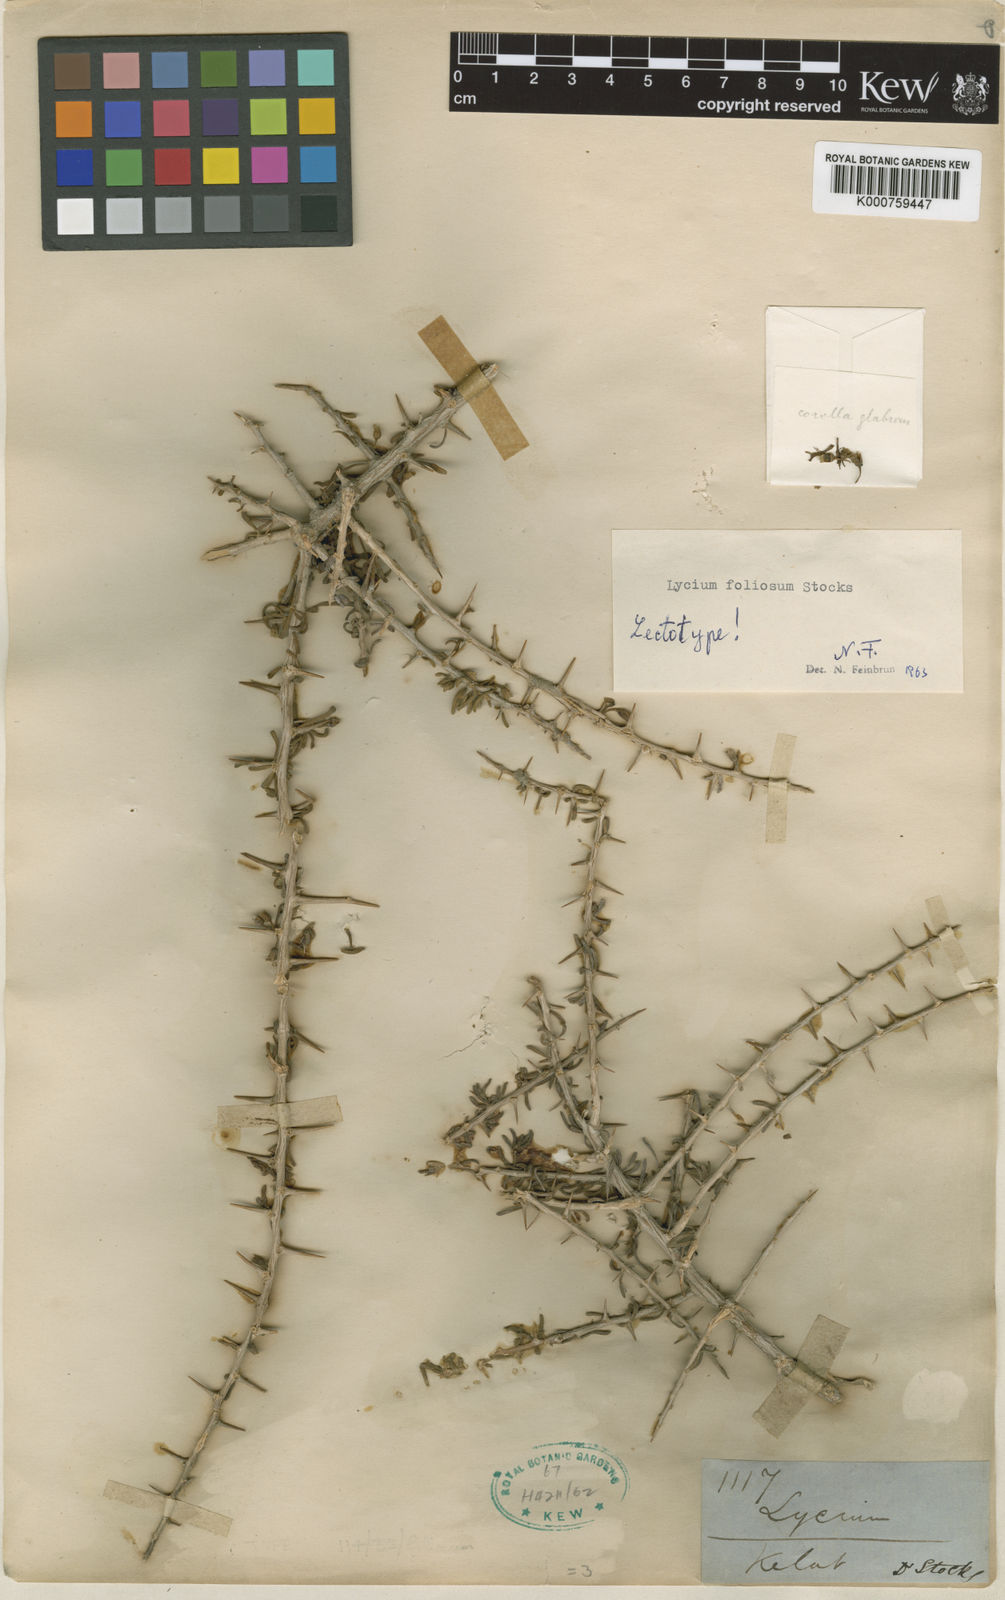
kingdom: Plantae
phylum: Tracheophyta
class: Magnoliopsida
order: Solanales
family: Solanaceae
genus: Lycium
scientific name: Lycium ruthenicum
